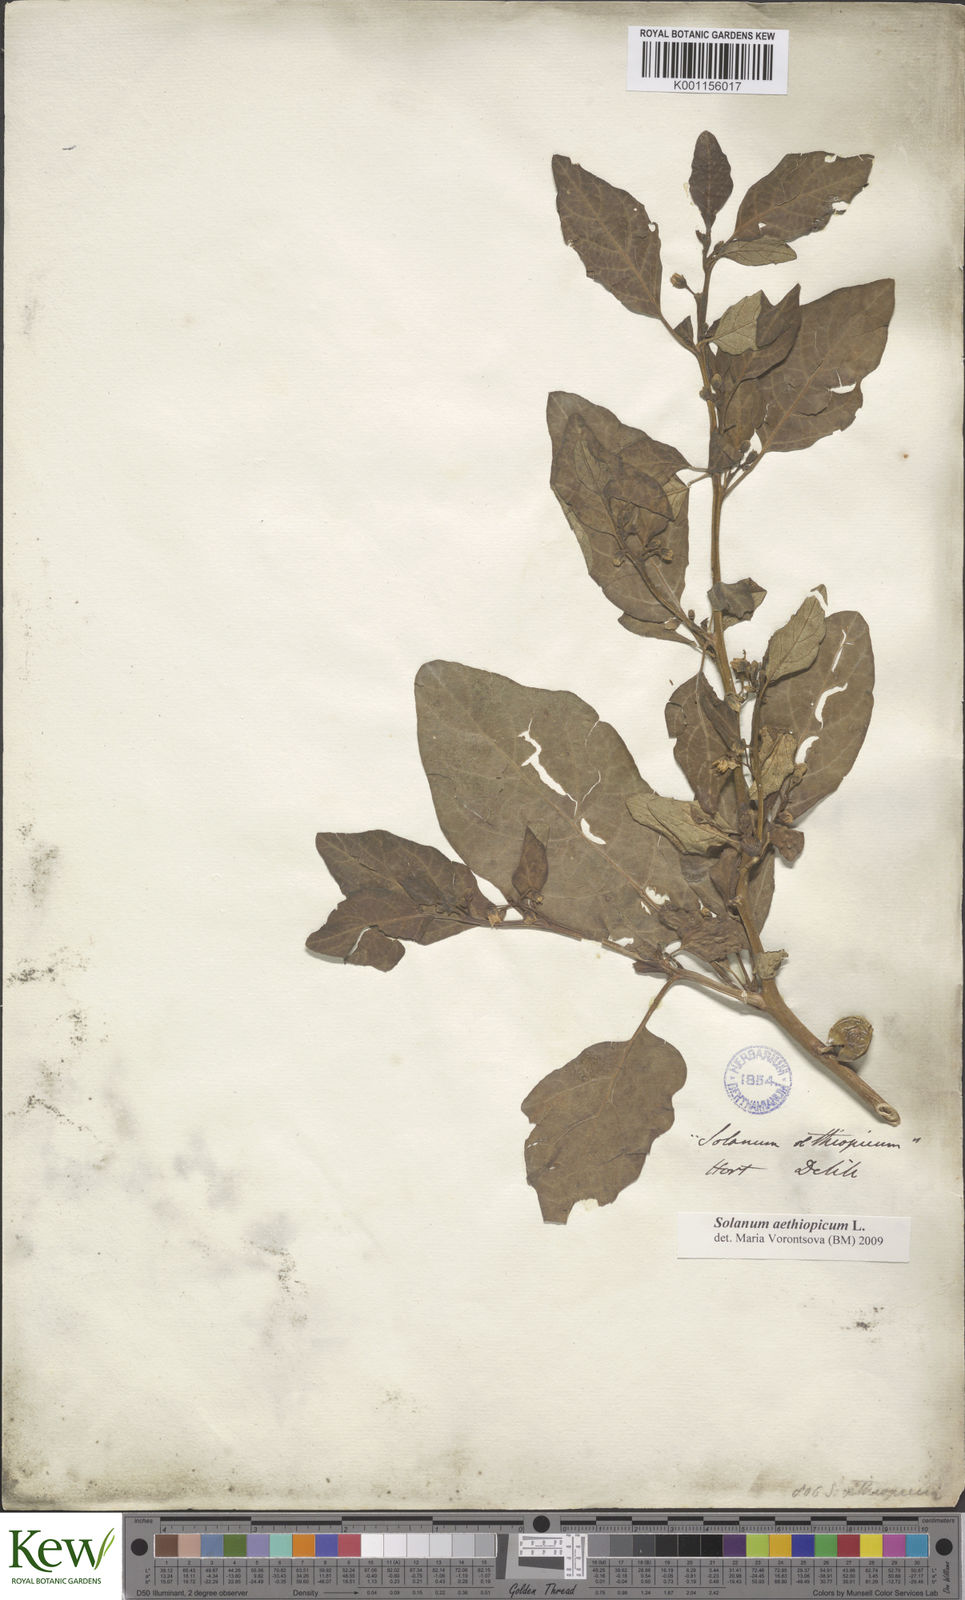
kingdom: Plantae
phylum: Tracheophyta
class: Magnoliopsida
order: Solanales
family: Solanaceae
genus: Solanum
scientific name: Solanum americanum
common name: American black nightshade
